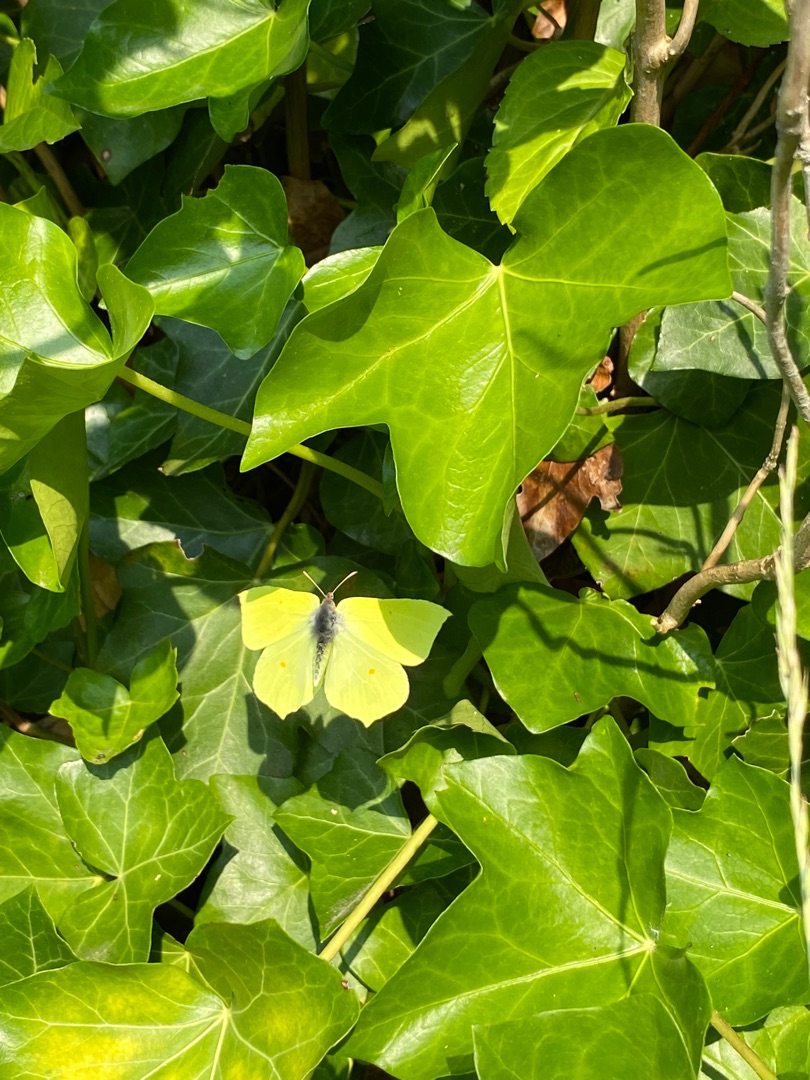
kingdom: Animalia
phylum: Arthropoda
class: Insecta
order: Lepidoptera
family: Pieridae
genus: Gonepteryx
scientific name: Gonepteryx rhamni
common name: Citronsommerfugl
